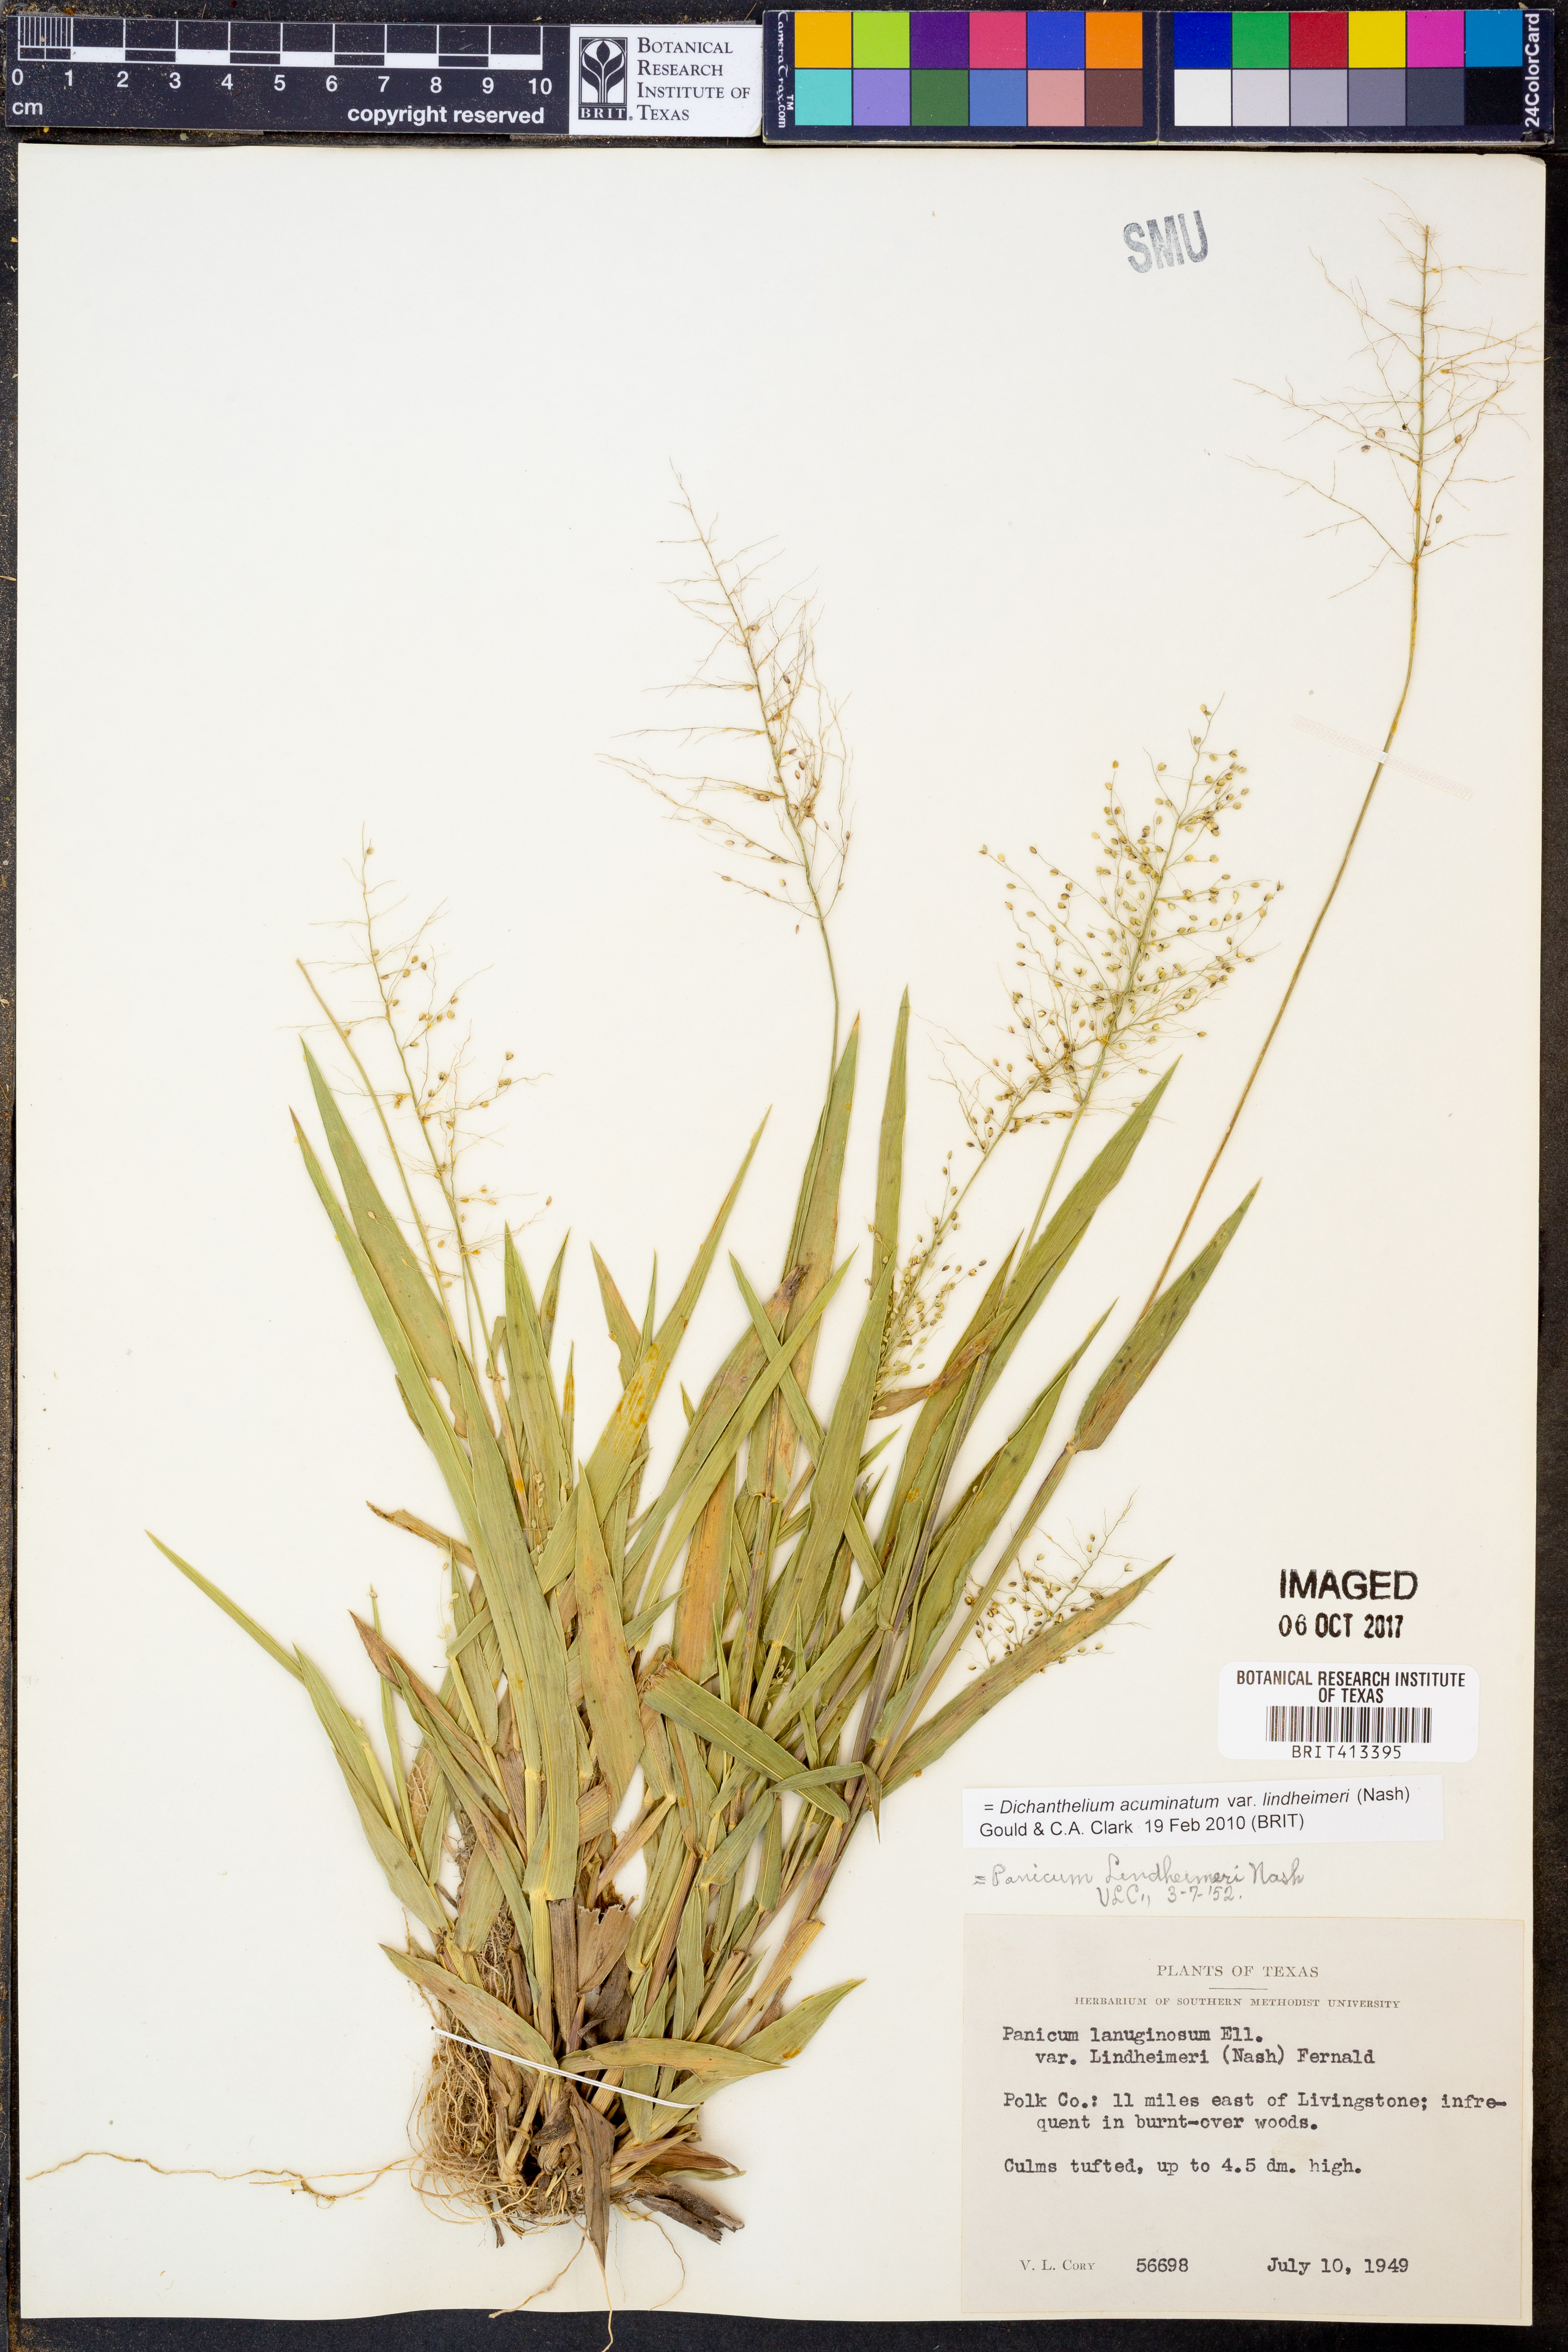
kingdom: Plantae
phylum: Tracheophyta
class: Liliopsida
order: Poales
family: Poaceae
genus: Dichanthelium
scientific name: Dichanthelium lindheimeri
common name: Lindheimer's panicgrass
